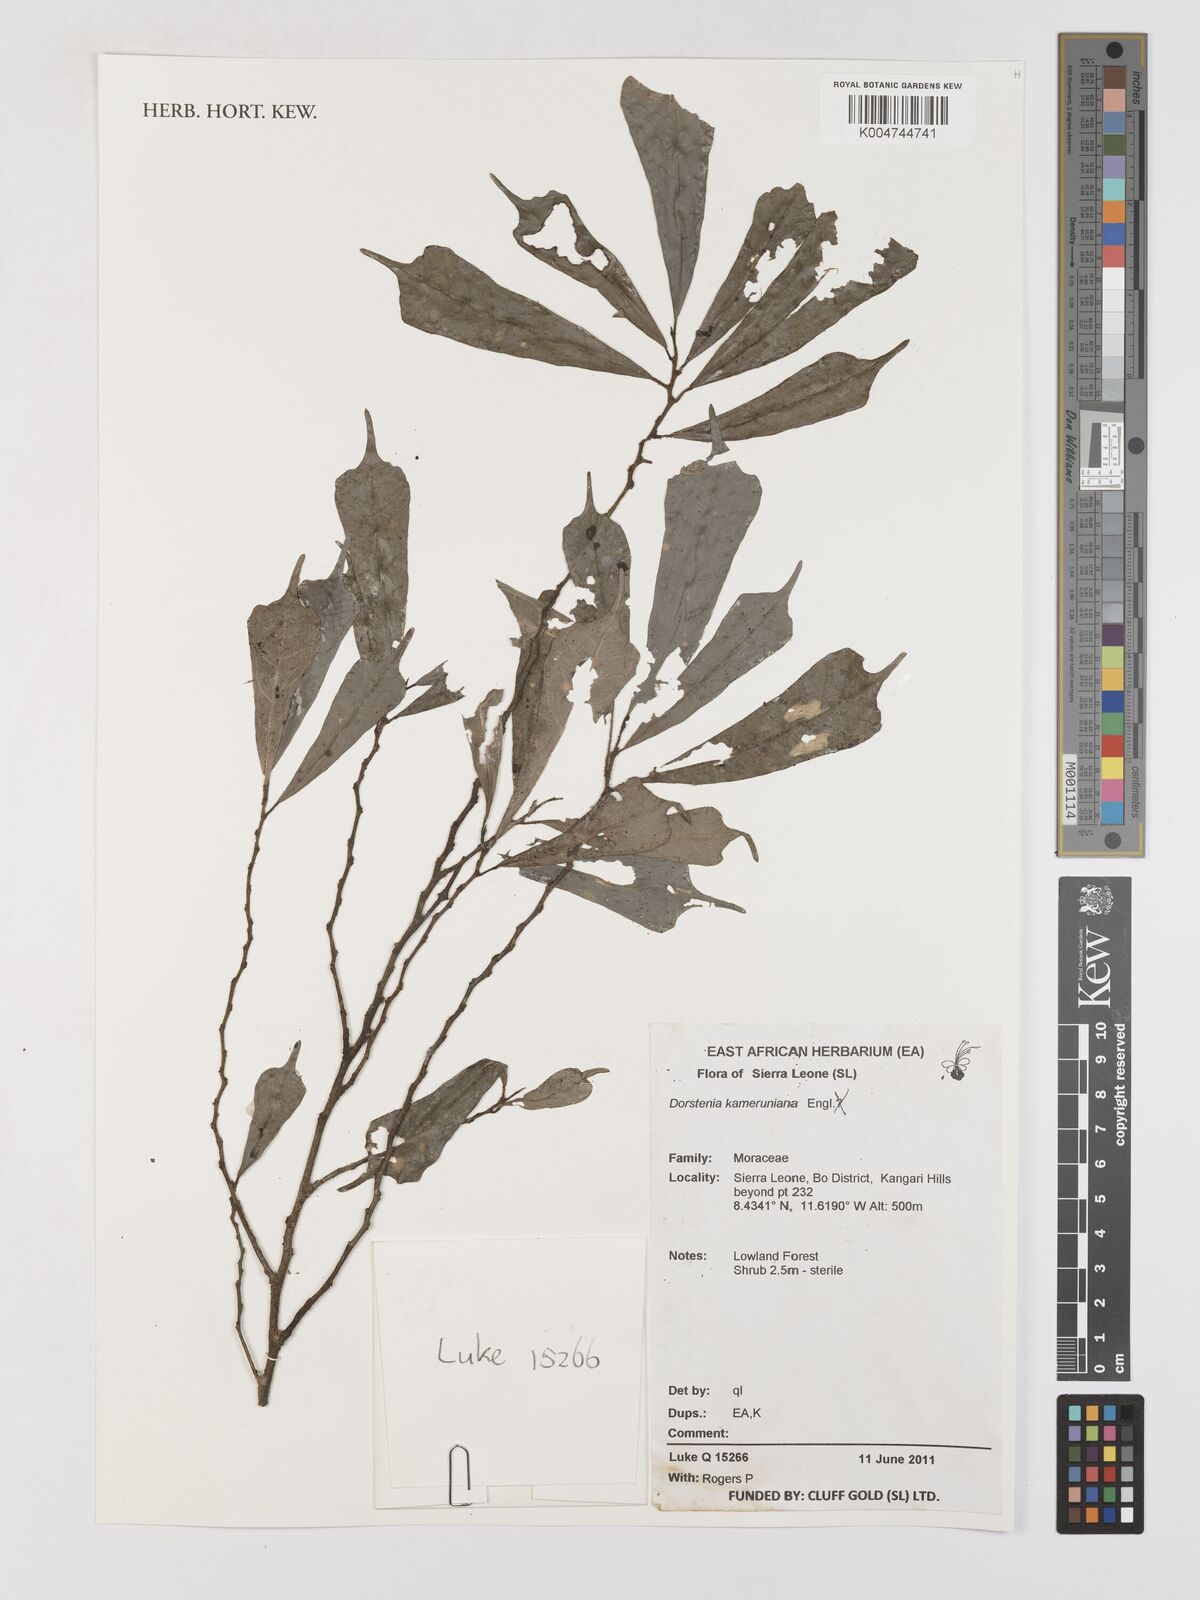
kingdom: Plantae
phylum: Tracheophyta
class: Magnoliopsida
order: Rosales
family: Moraceae
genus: Dorstenia
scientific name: Dorstenia kameruniana
